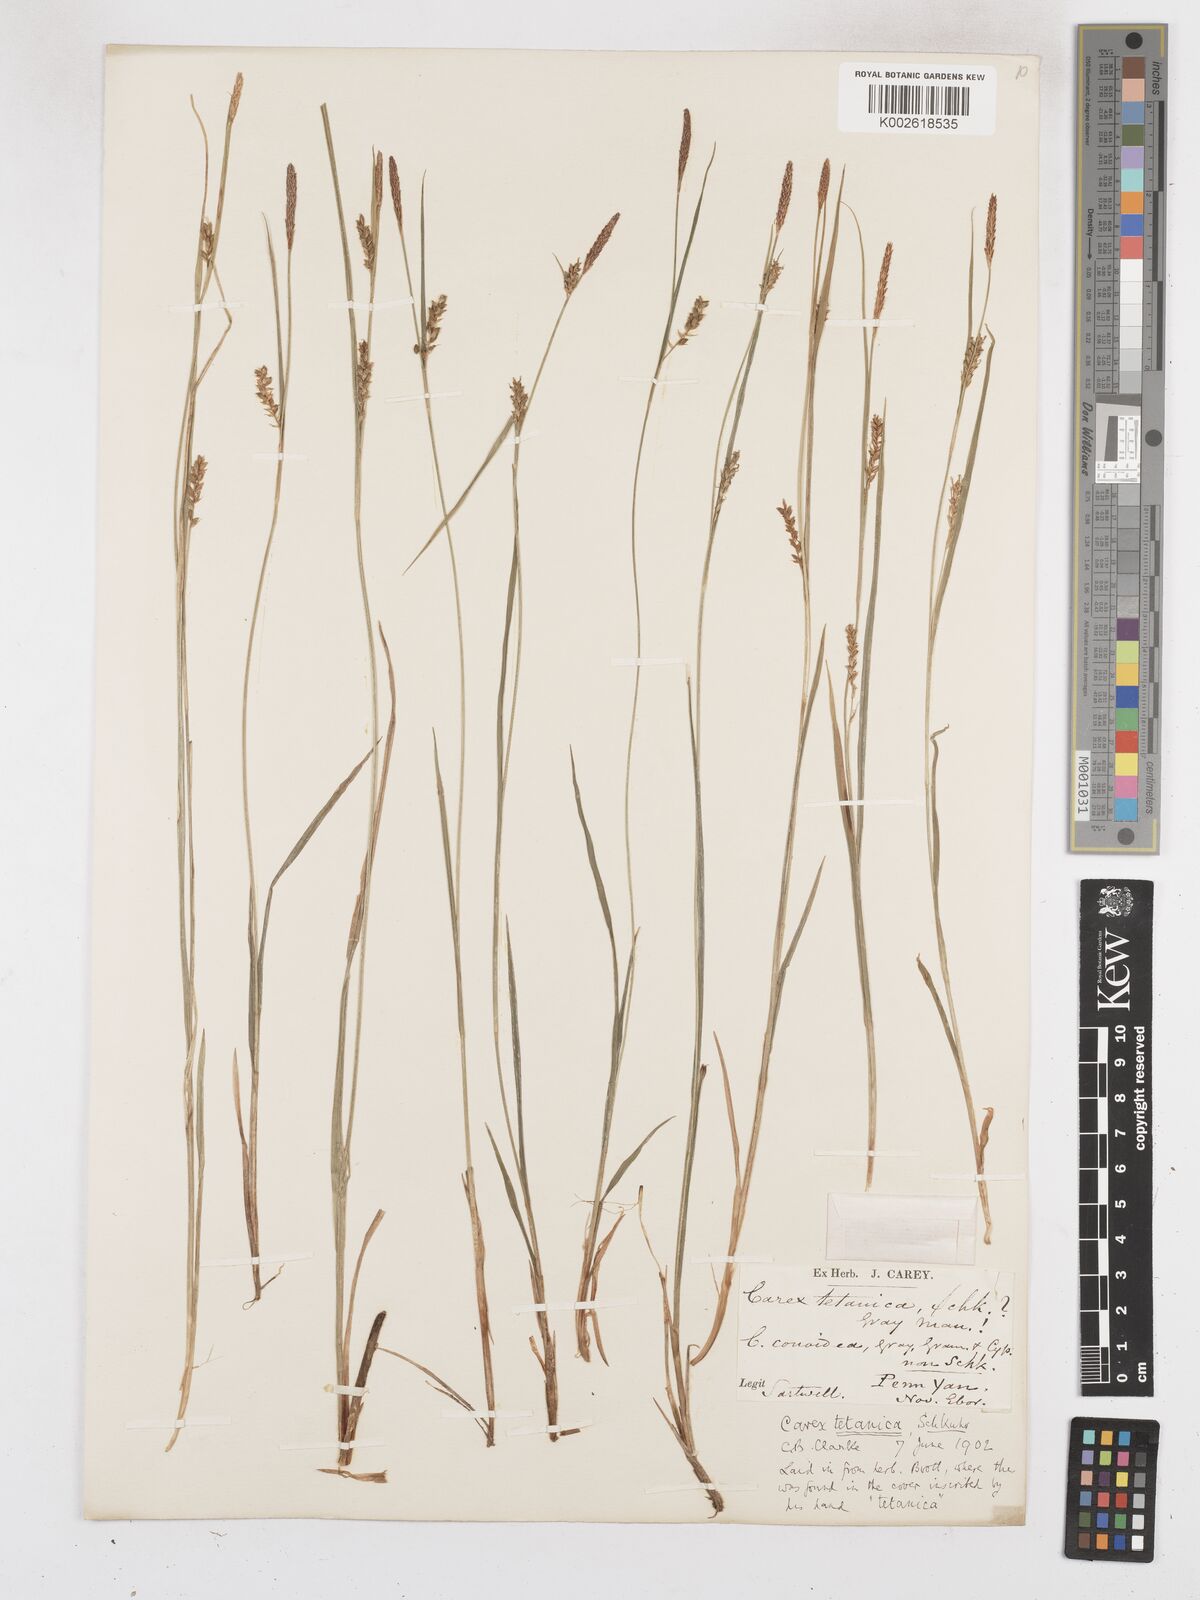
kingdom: Plantae
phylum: Tracheophyta
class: Liliopsida
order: Poales
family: Cyperaceae
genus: Carex
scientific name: Carex tetanica
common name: Rigid sedge
